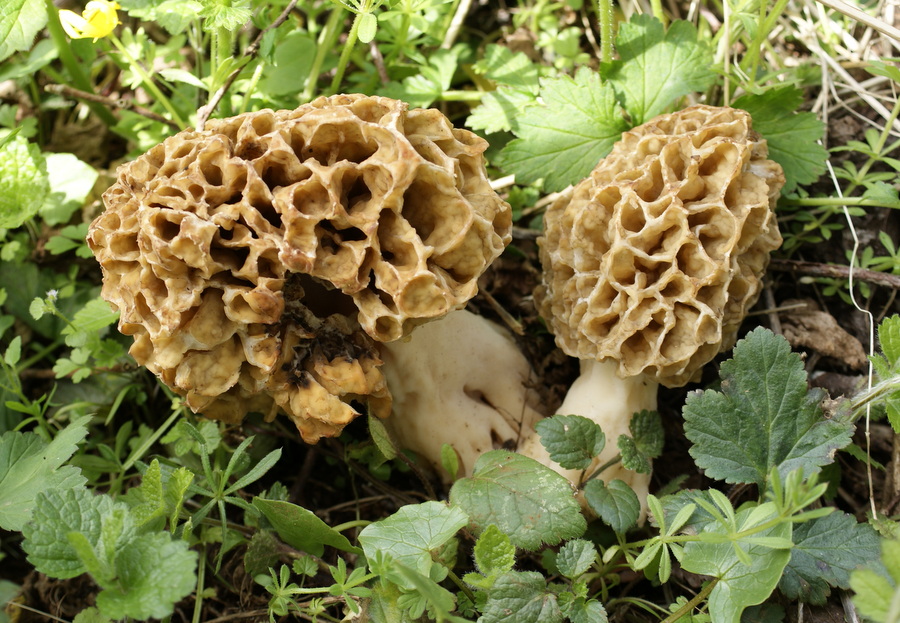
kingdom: Fungi
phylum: Ascomycota
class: Pezizomycetes
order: Pezizales
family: Morchellaceae
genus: Morchella
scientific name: Morchella esculenta
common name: spiselig morkel
